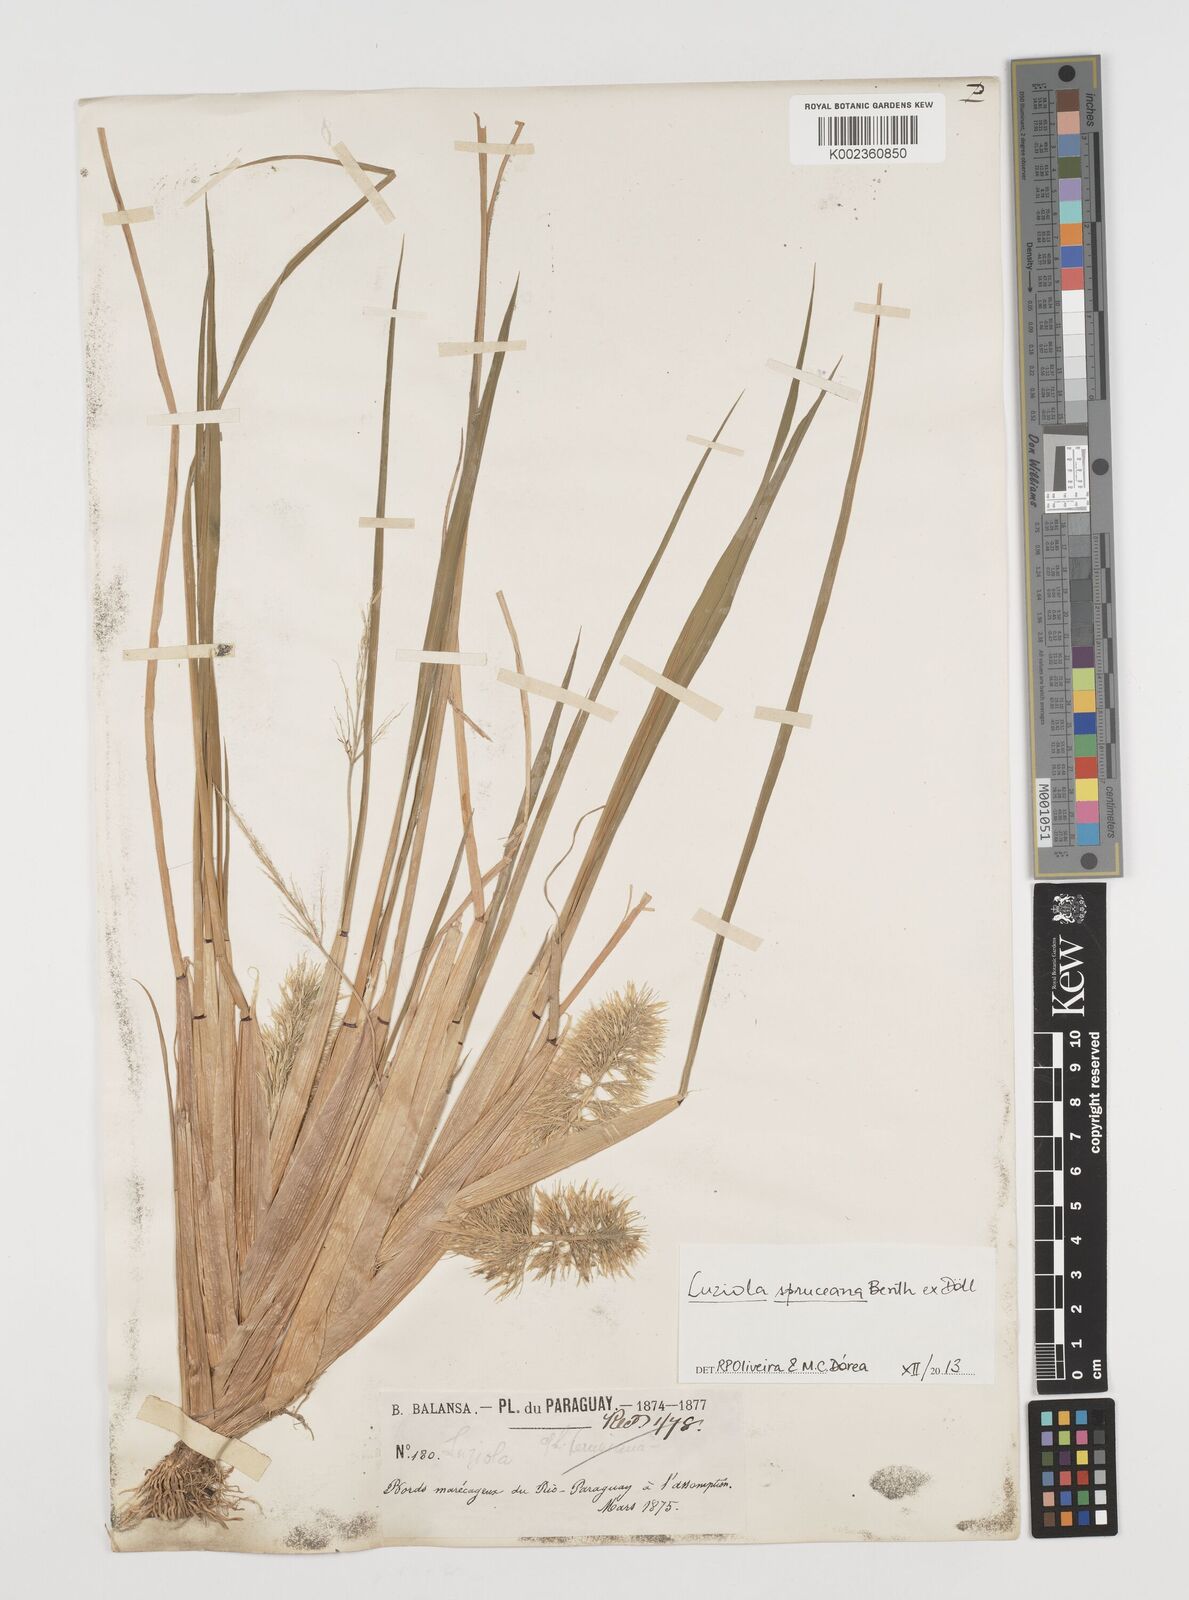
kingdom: Plantae
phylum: Tracheophyta
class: Liliopsida
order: Poales
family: Poaceae
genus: Luziola
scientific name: Luziola spruceana
